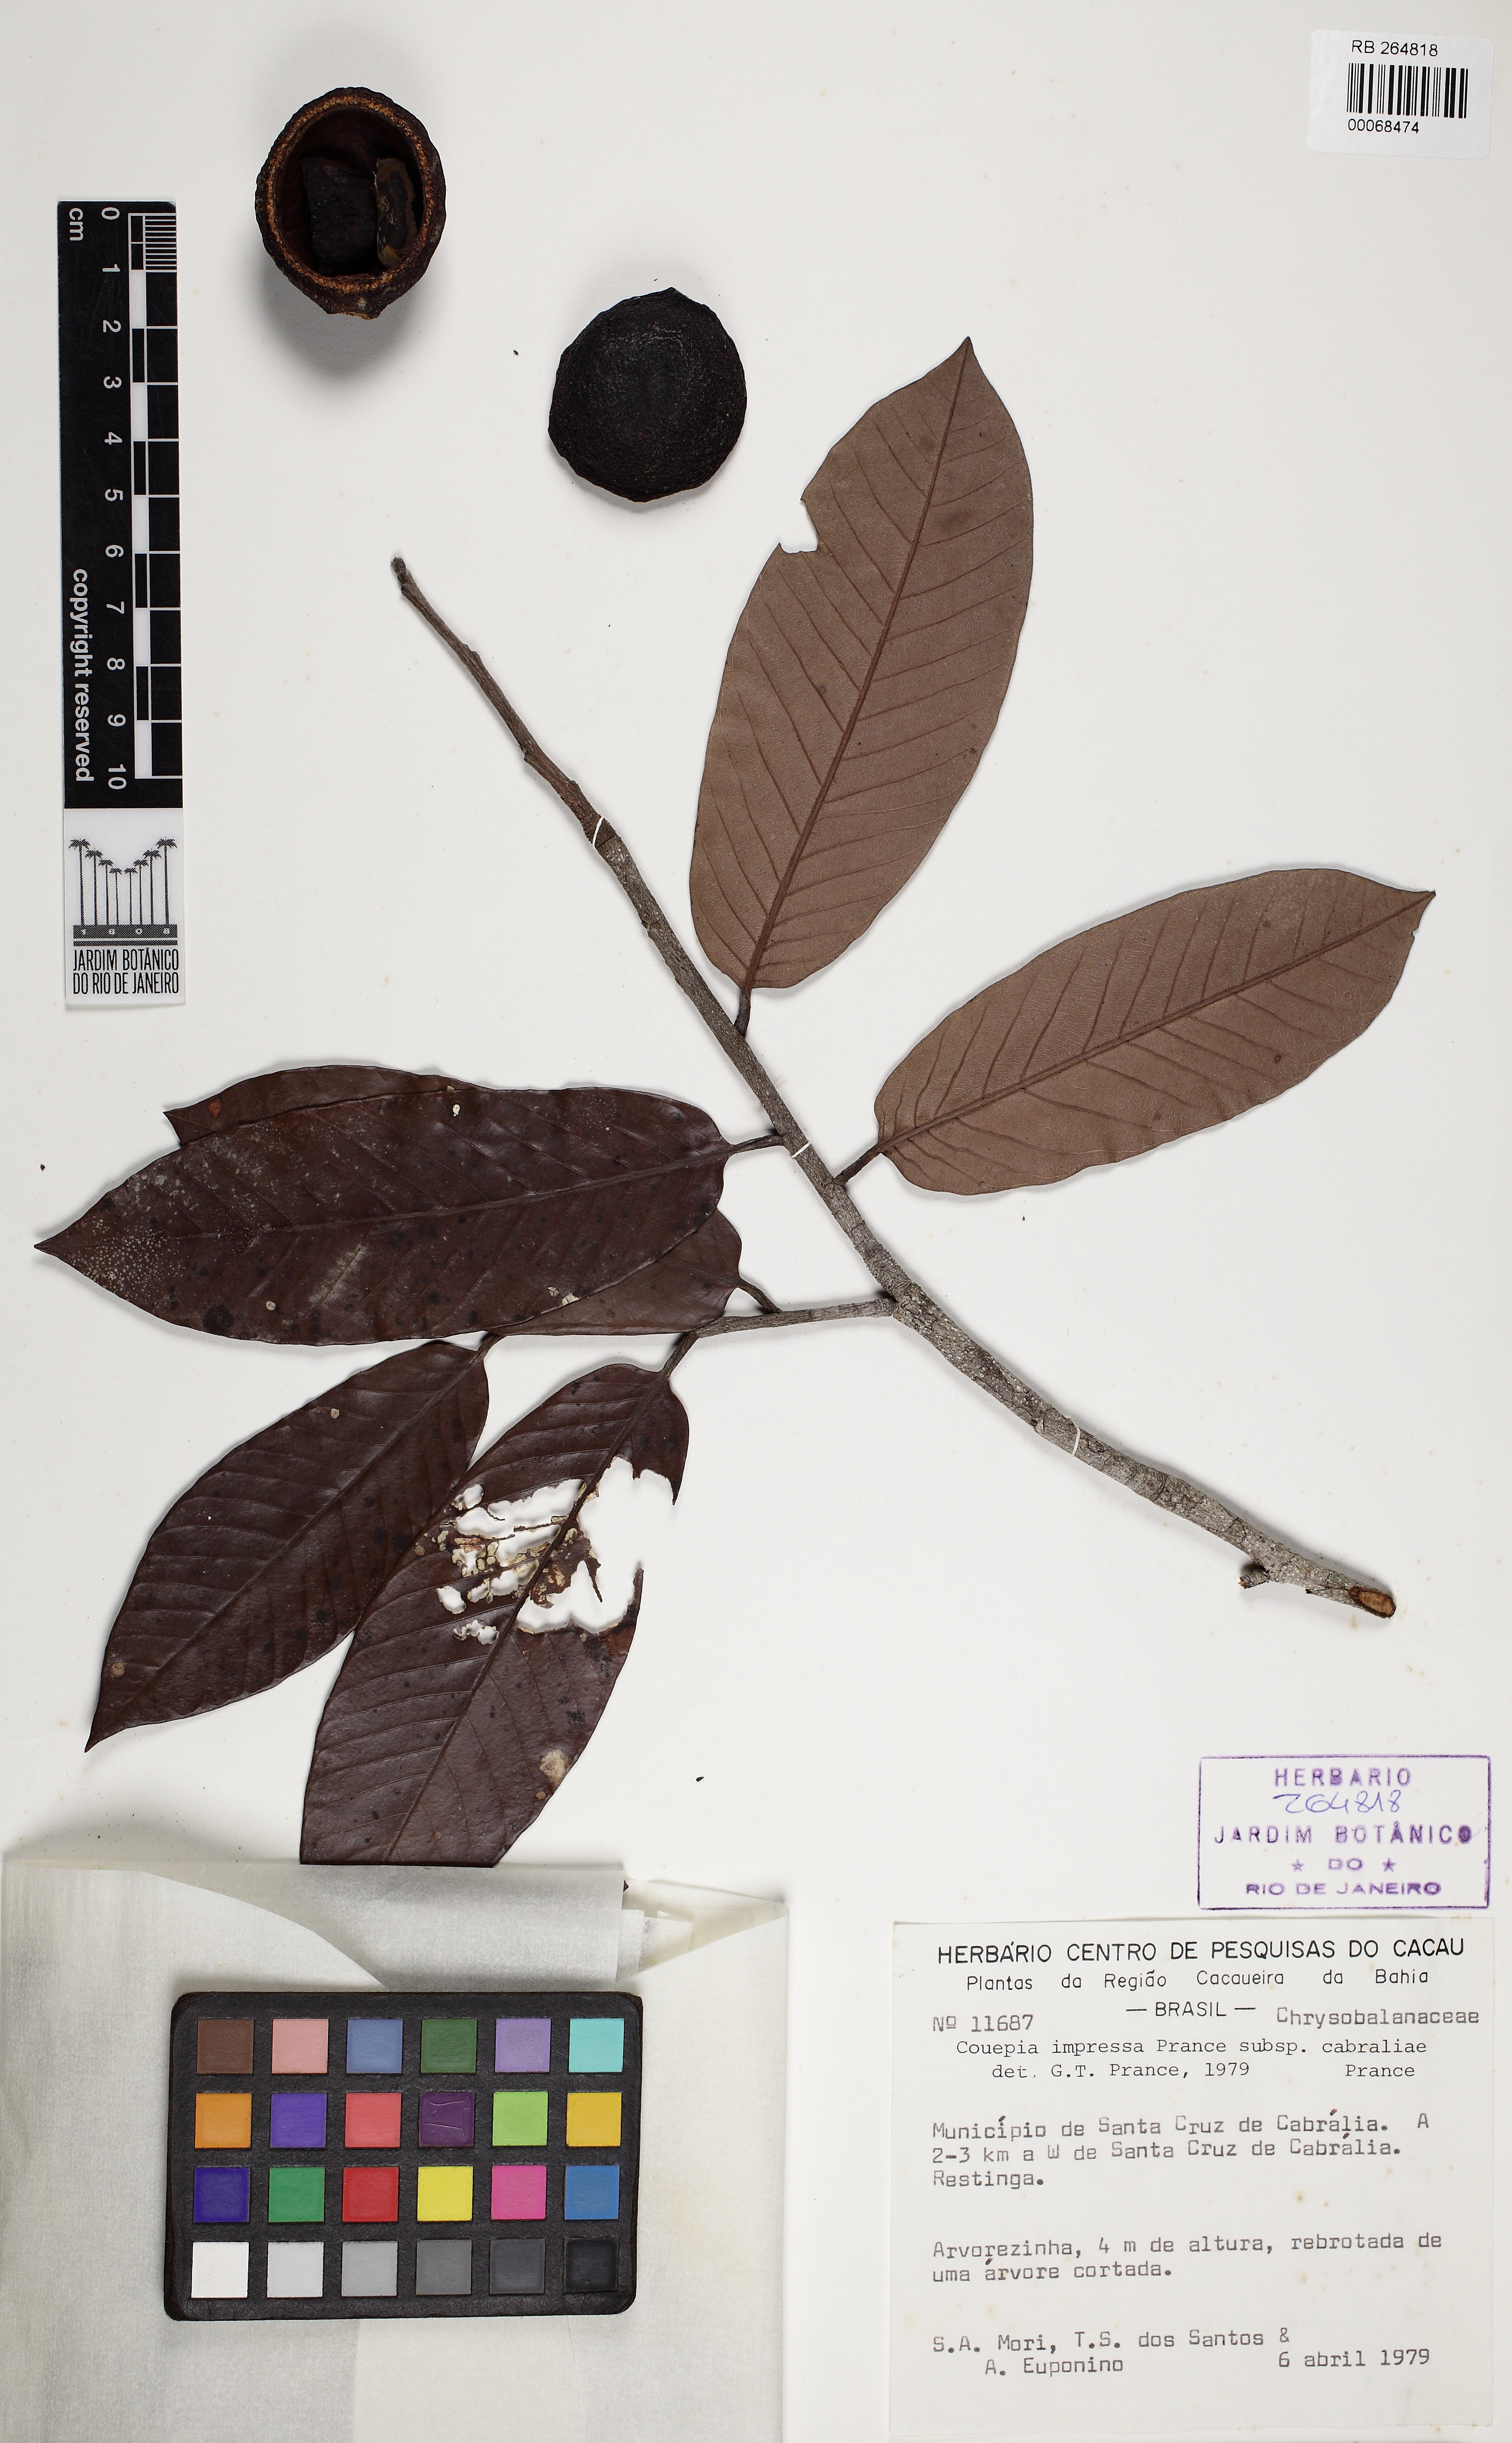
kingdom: Plantae
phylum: Tracheophyta
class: Magnoliopsida
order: Malpighiales
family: Chrysobalanaceae
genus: Couepia
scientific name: Couepia impressa
